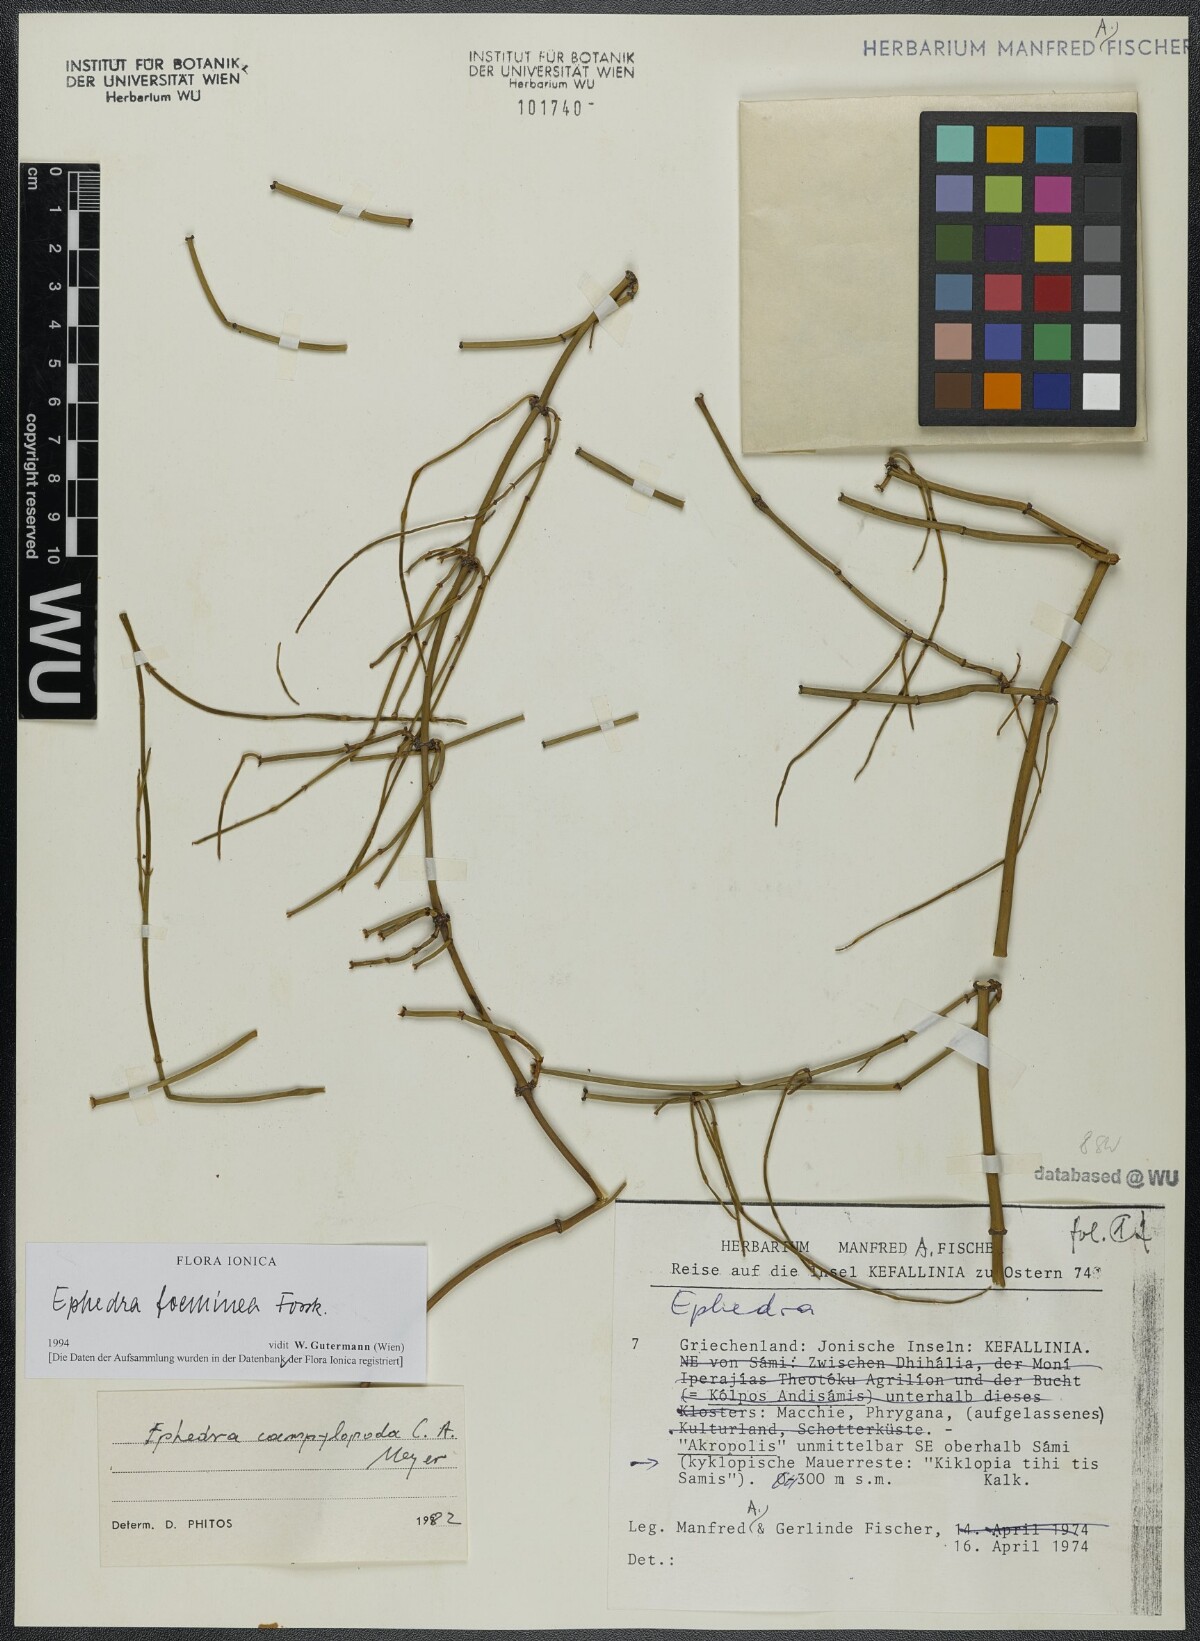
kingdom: Plantae
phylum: Tracheophyta
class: Gnetopsida
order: Ephedrales
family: Ephedraceae
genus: Ephedra
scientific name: Ephedra foeminea
